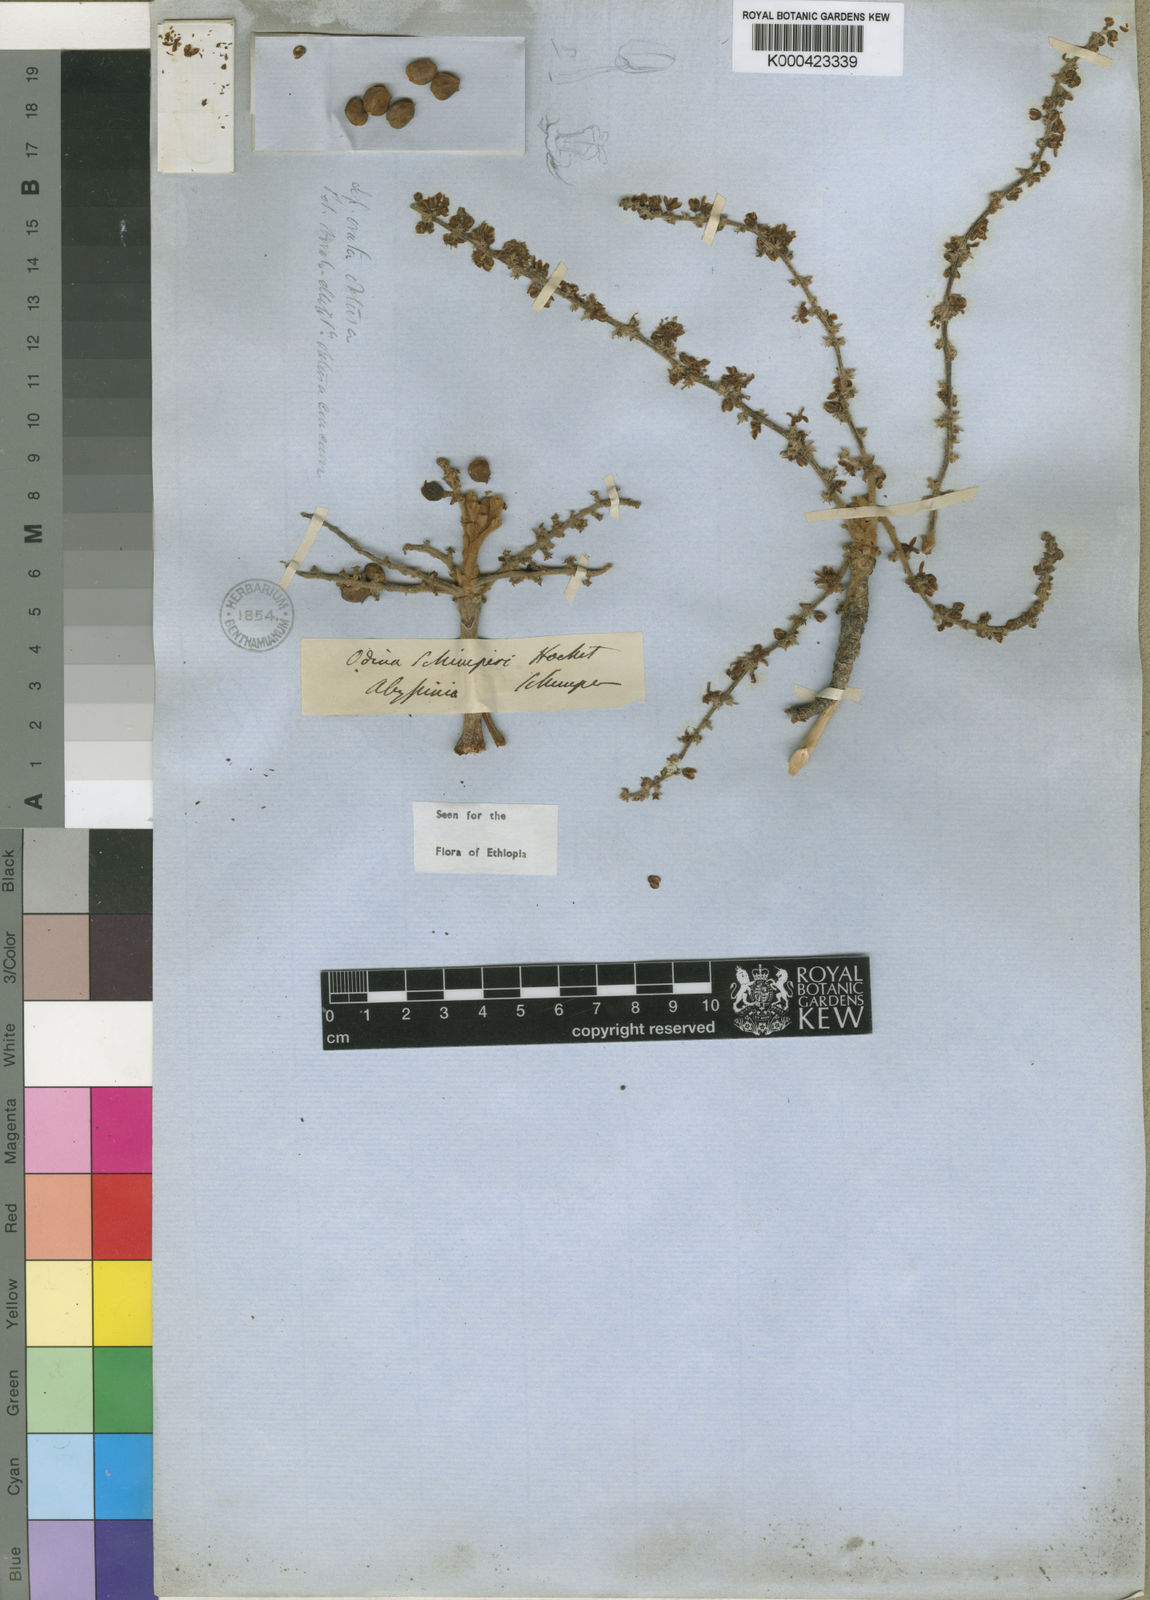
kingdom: Plantae
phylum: Tracheophyta
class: Magnoliopsida
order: Sapindales
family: Anacardiaceae
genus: Lannea
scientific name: Lannea schimperi
